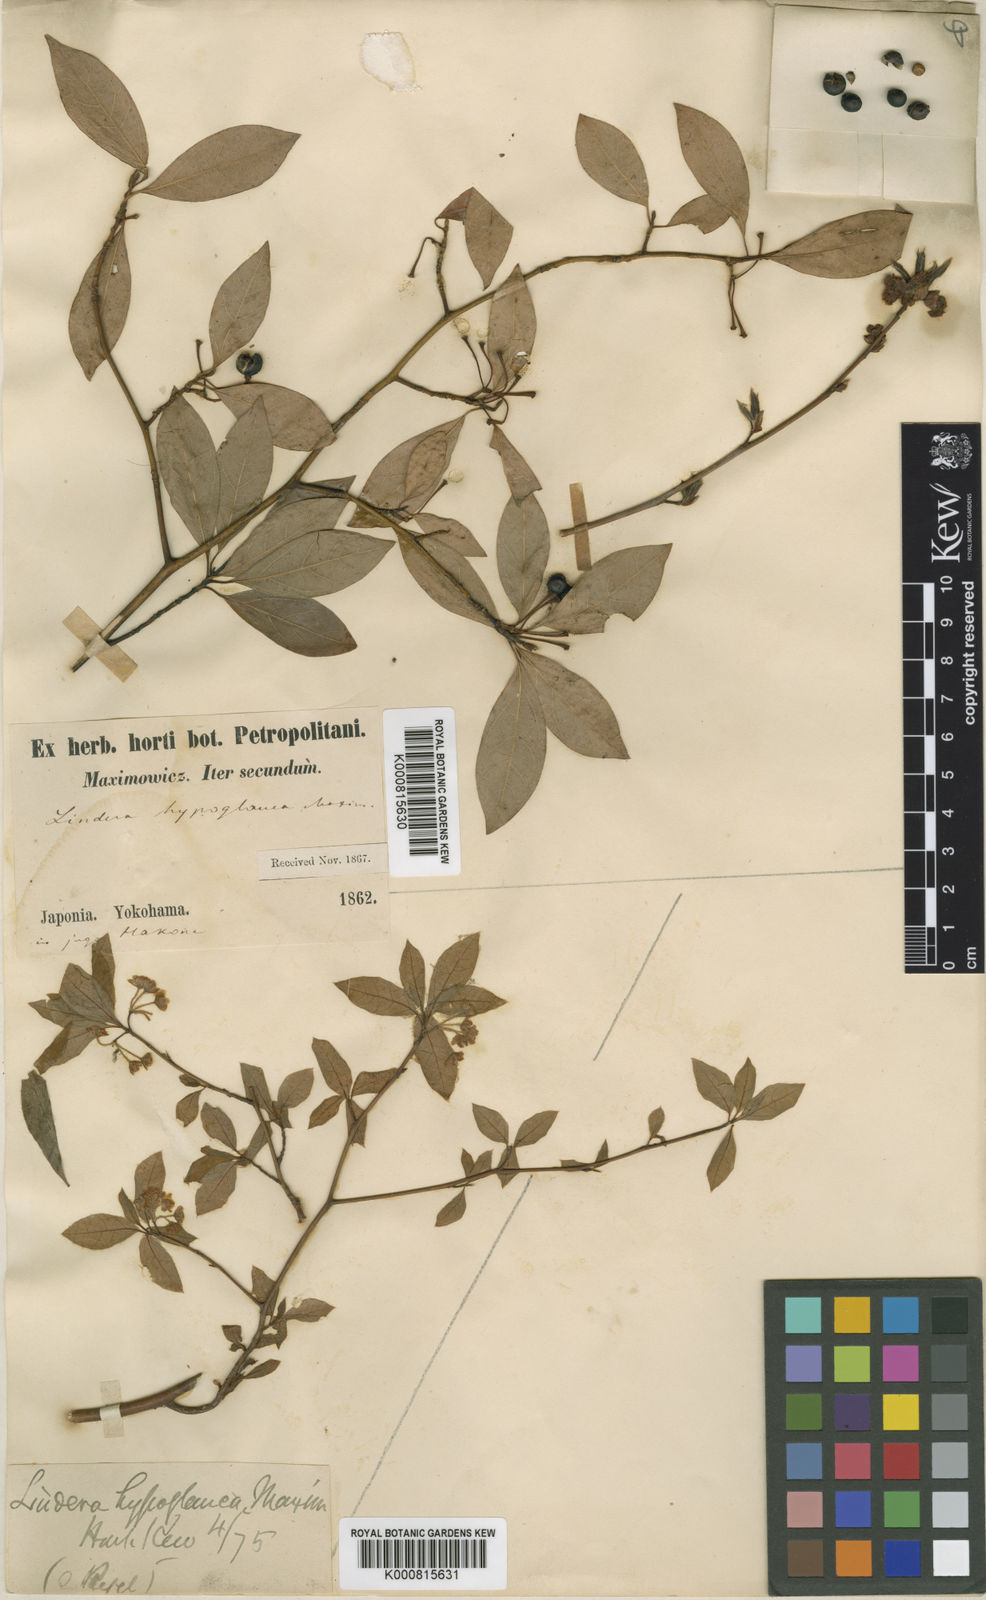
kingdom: Plantae
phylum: Tracheophyta
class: Magnoliopsida
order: Laurales
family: Lauraceae
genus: Lindera
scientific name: Lindera umbellata
